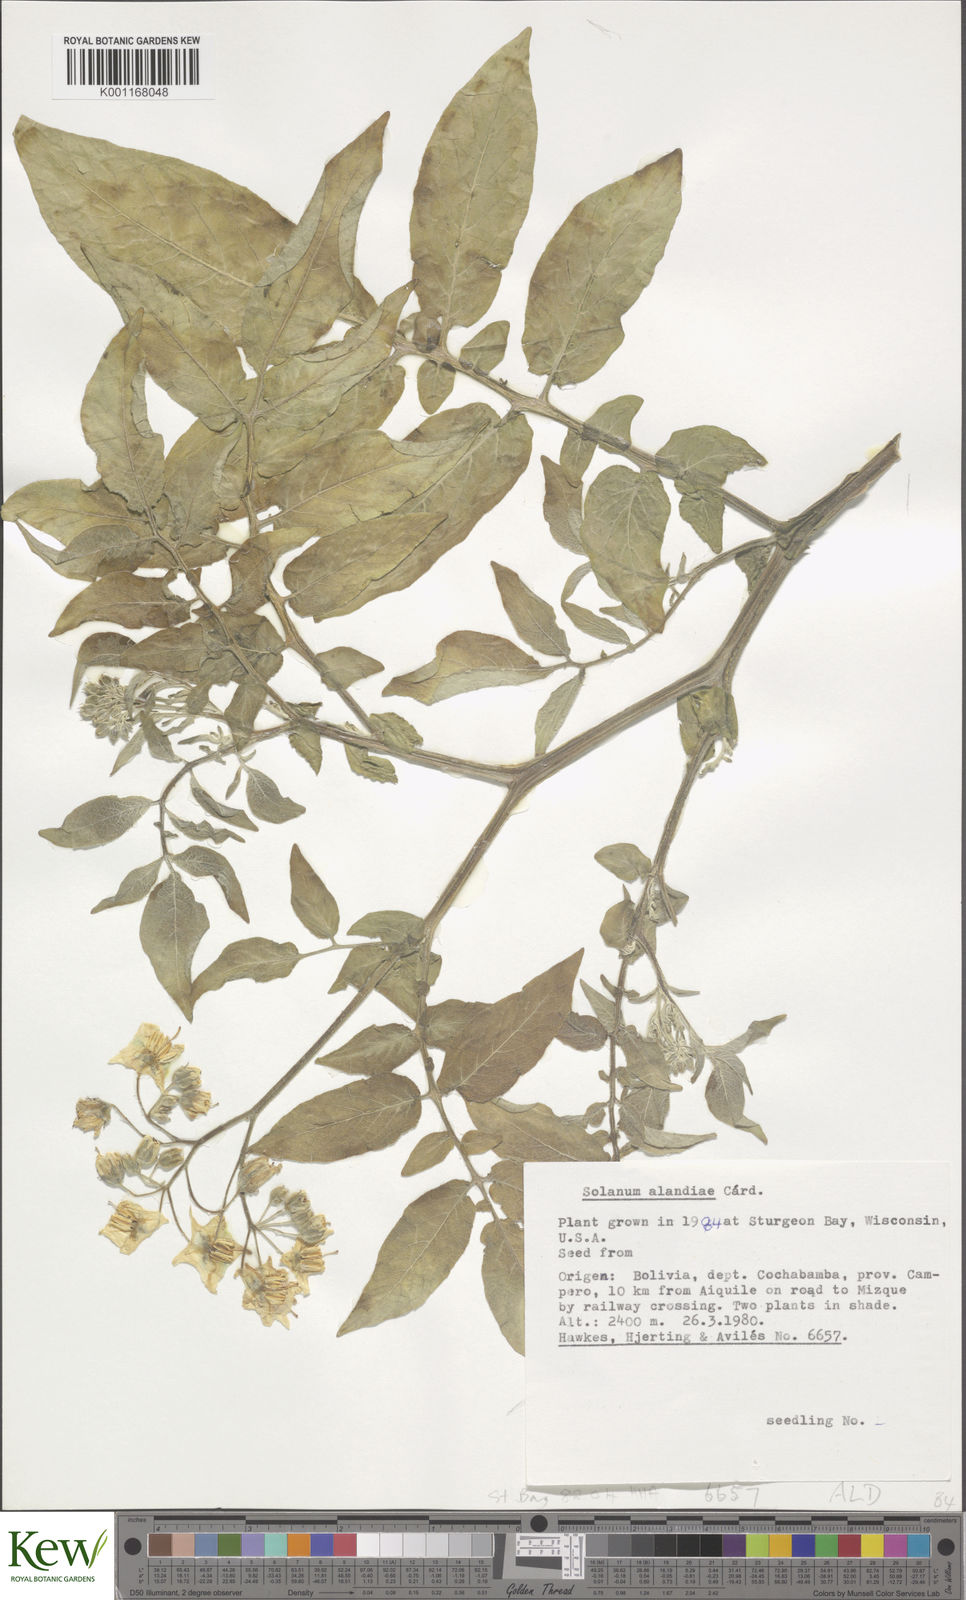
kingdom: Plantae
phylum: Tracheophyta
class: Magnoliopsida
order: Solanales
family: Solanaceae
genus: Solanum
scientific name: Solanum
